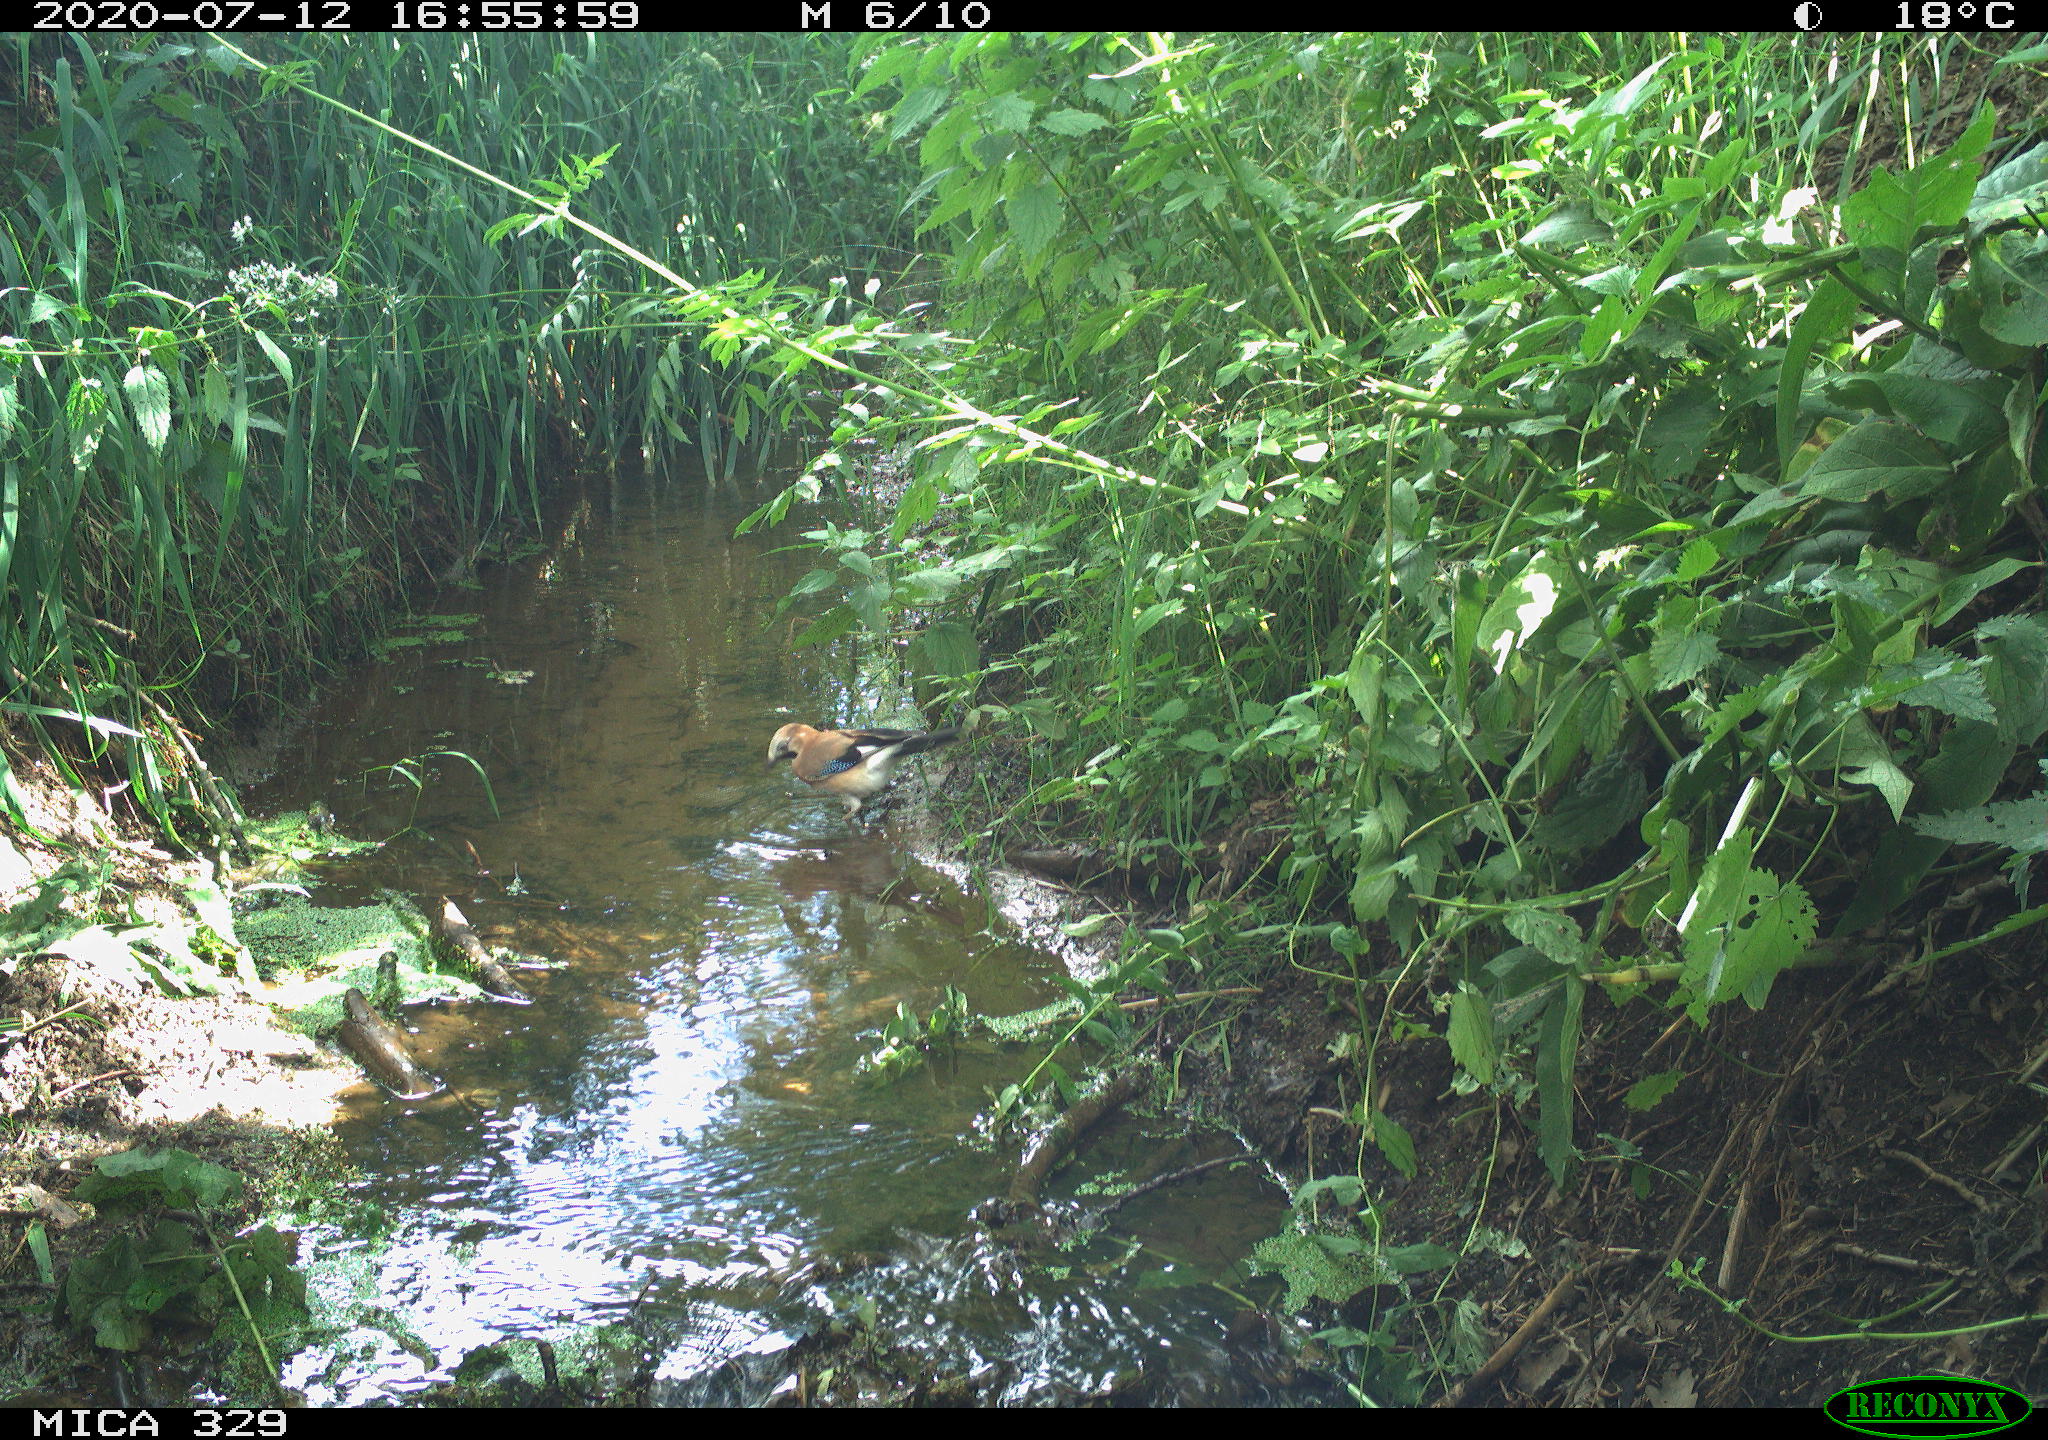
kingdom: Animalia
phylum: Chordata
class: Aves
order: Passeriformes
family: Corvidae
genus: Garrulus
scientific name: Garrulus glandarius
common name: Eurasian jay
